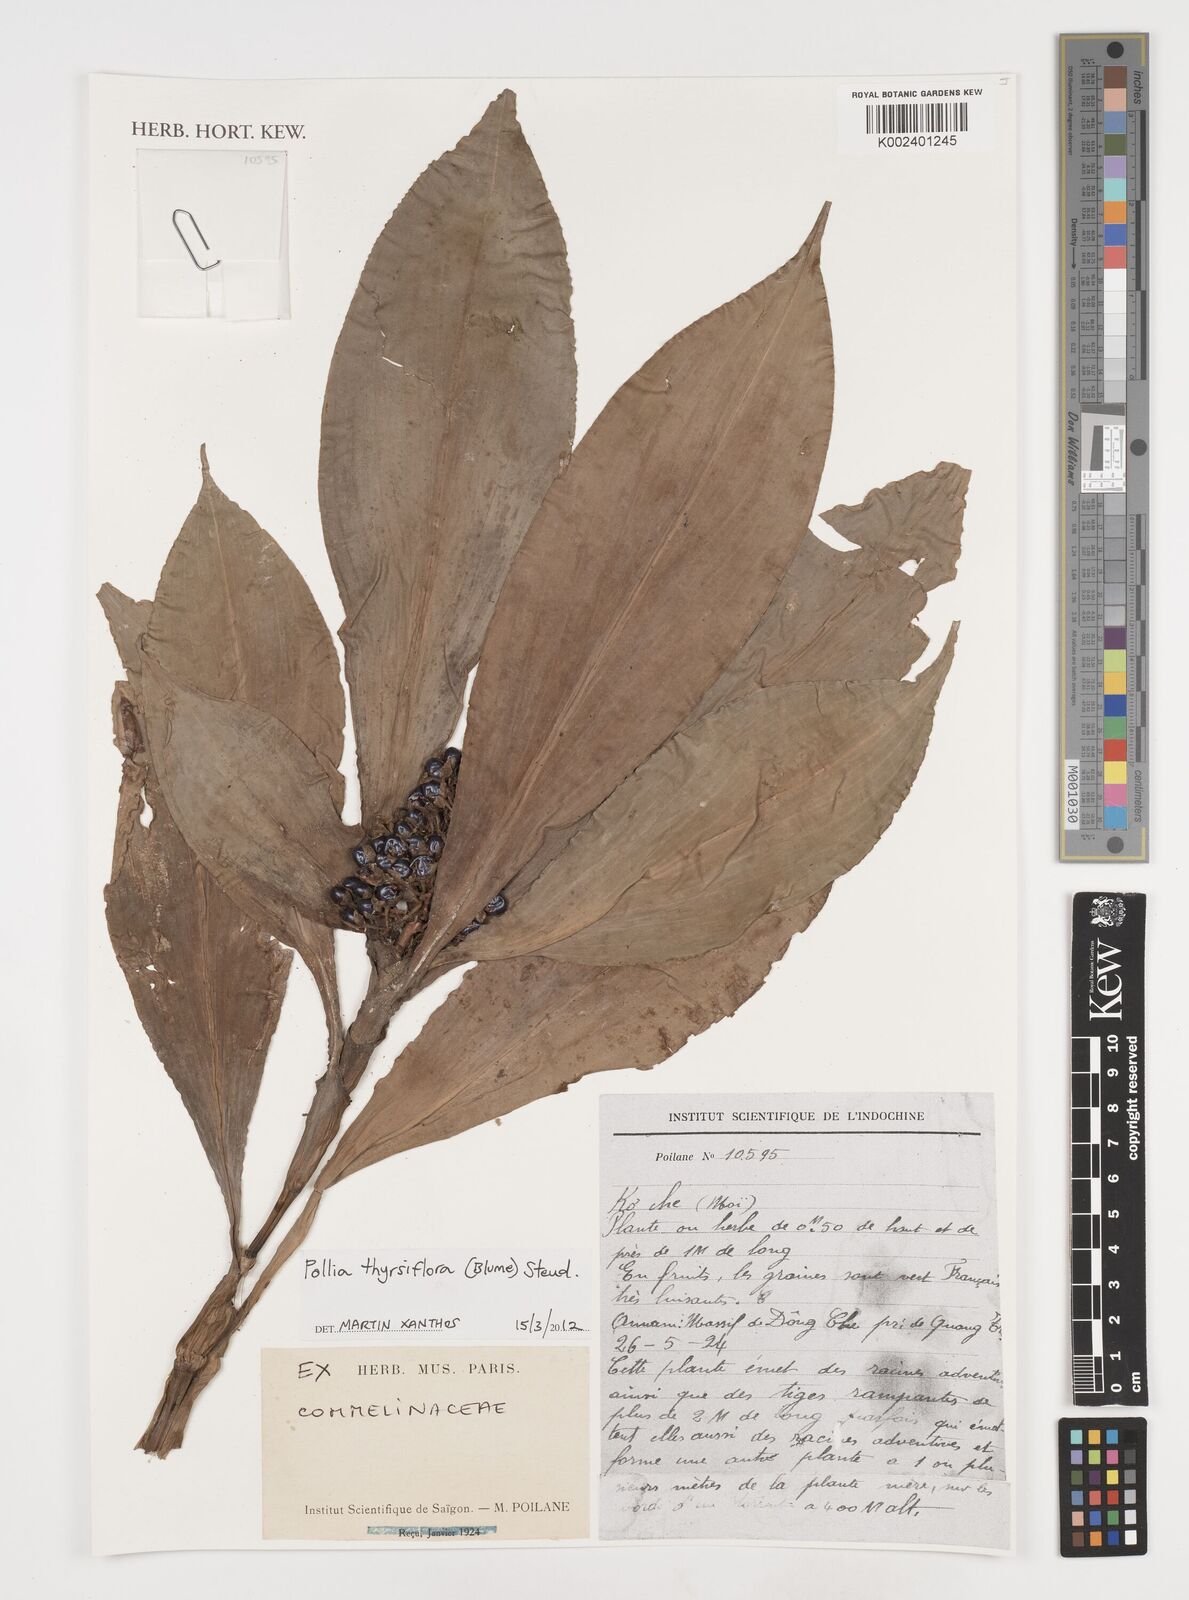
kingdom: Plantae
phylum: Tracheophyta
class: Liliopsida
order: Commelinales
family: Commelinaceae
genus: Pollia
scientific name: Pollia thyrsiflora
